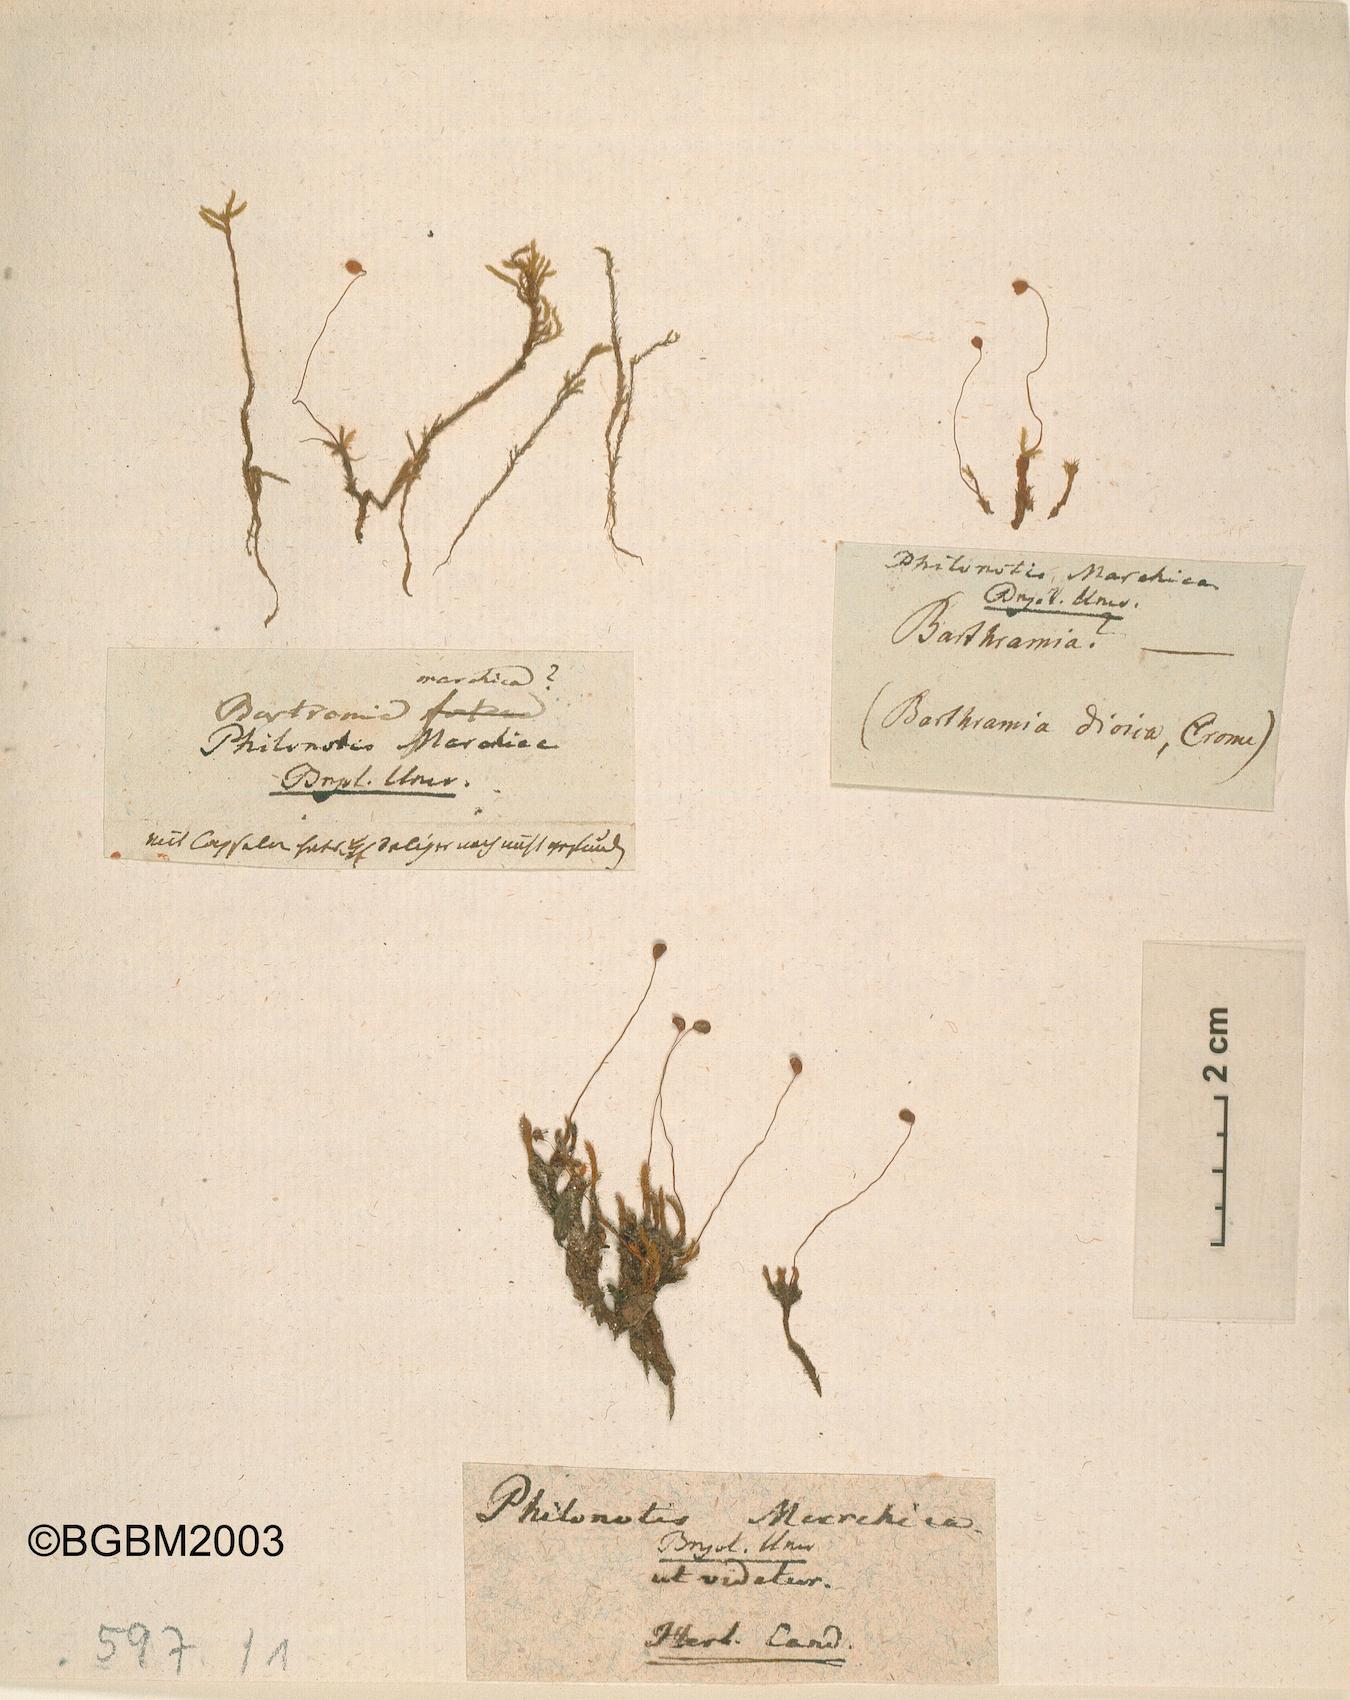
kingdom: Plantae
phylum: Bryophyta
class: Bryopsida
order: Bartramiales
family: Bartramiaceae
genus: Philonotis
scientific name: Philonotis marchica
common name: Bog apple moss
